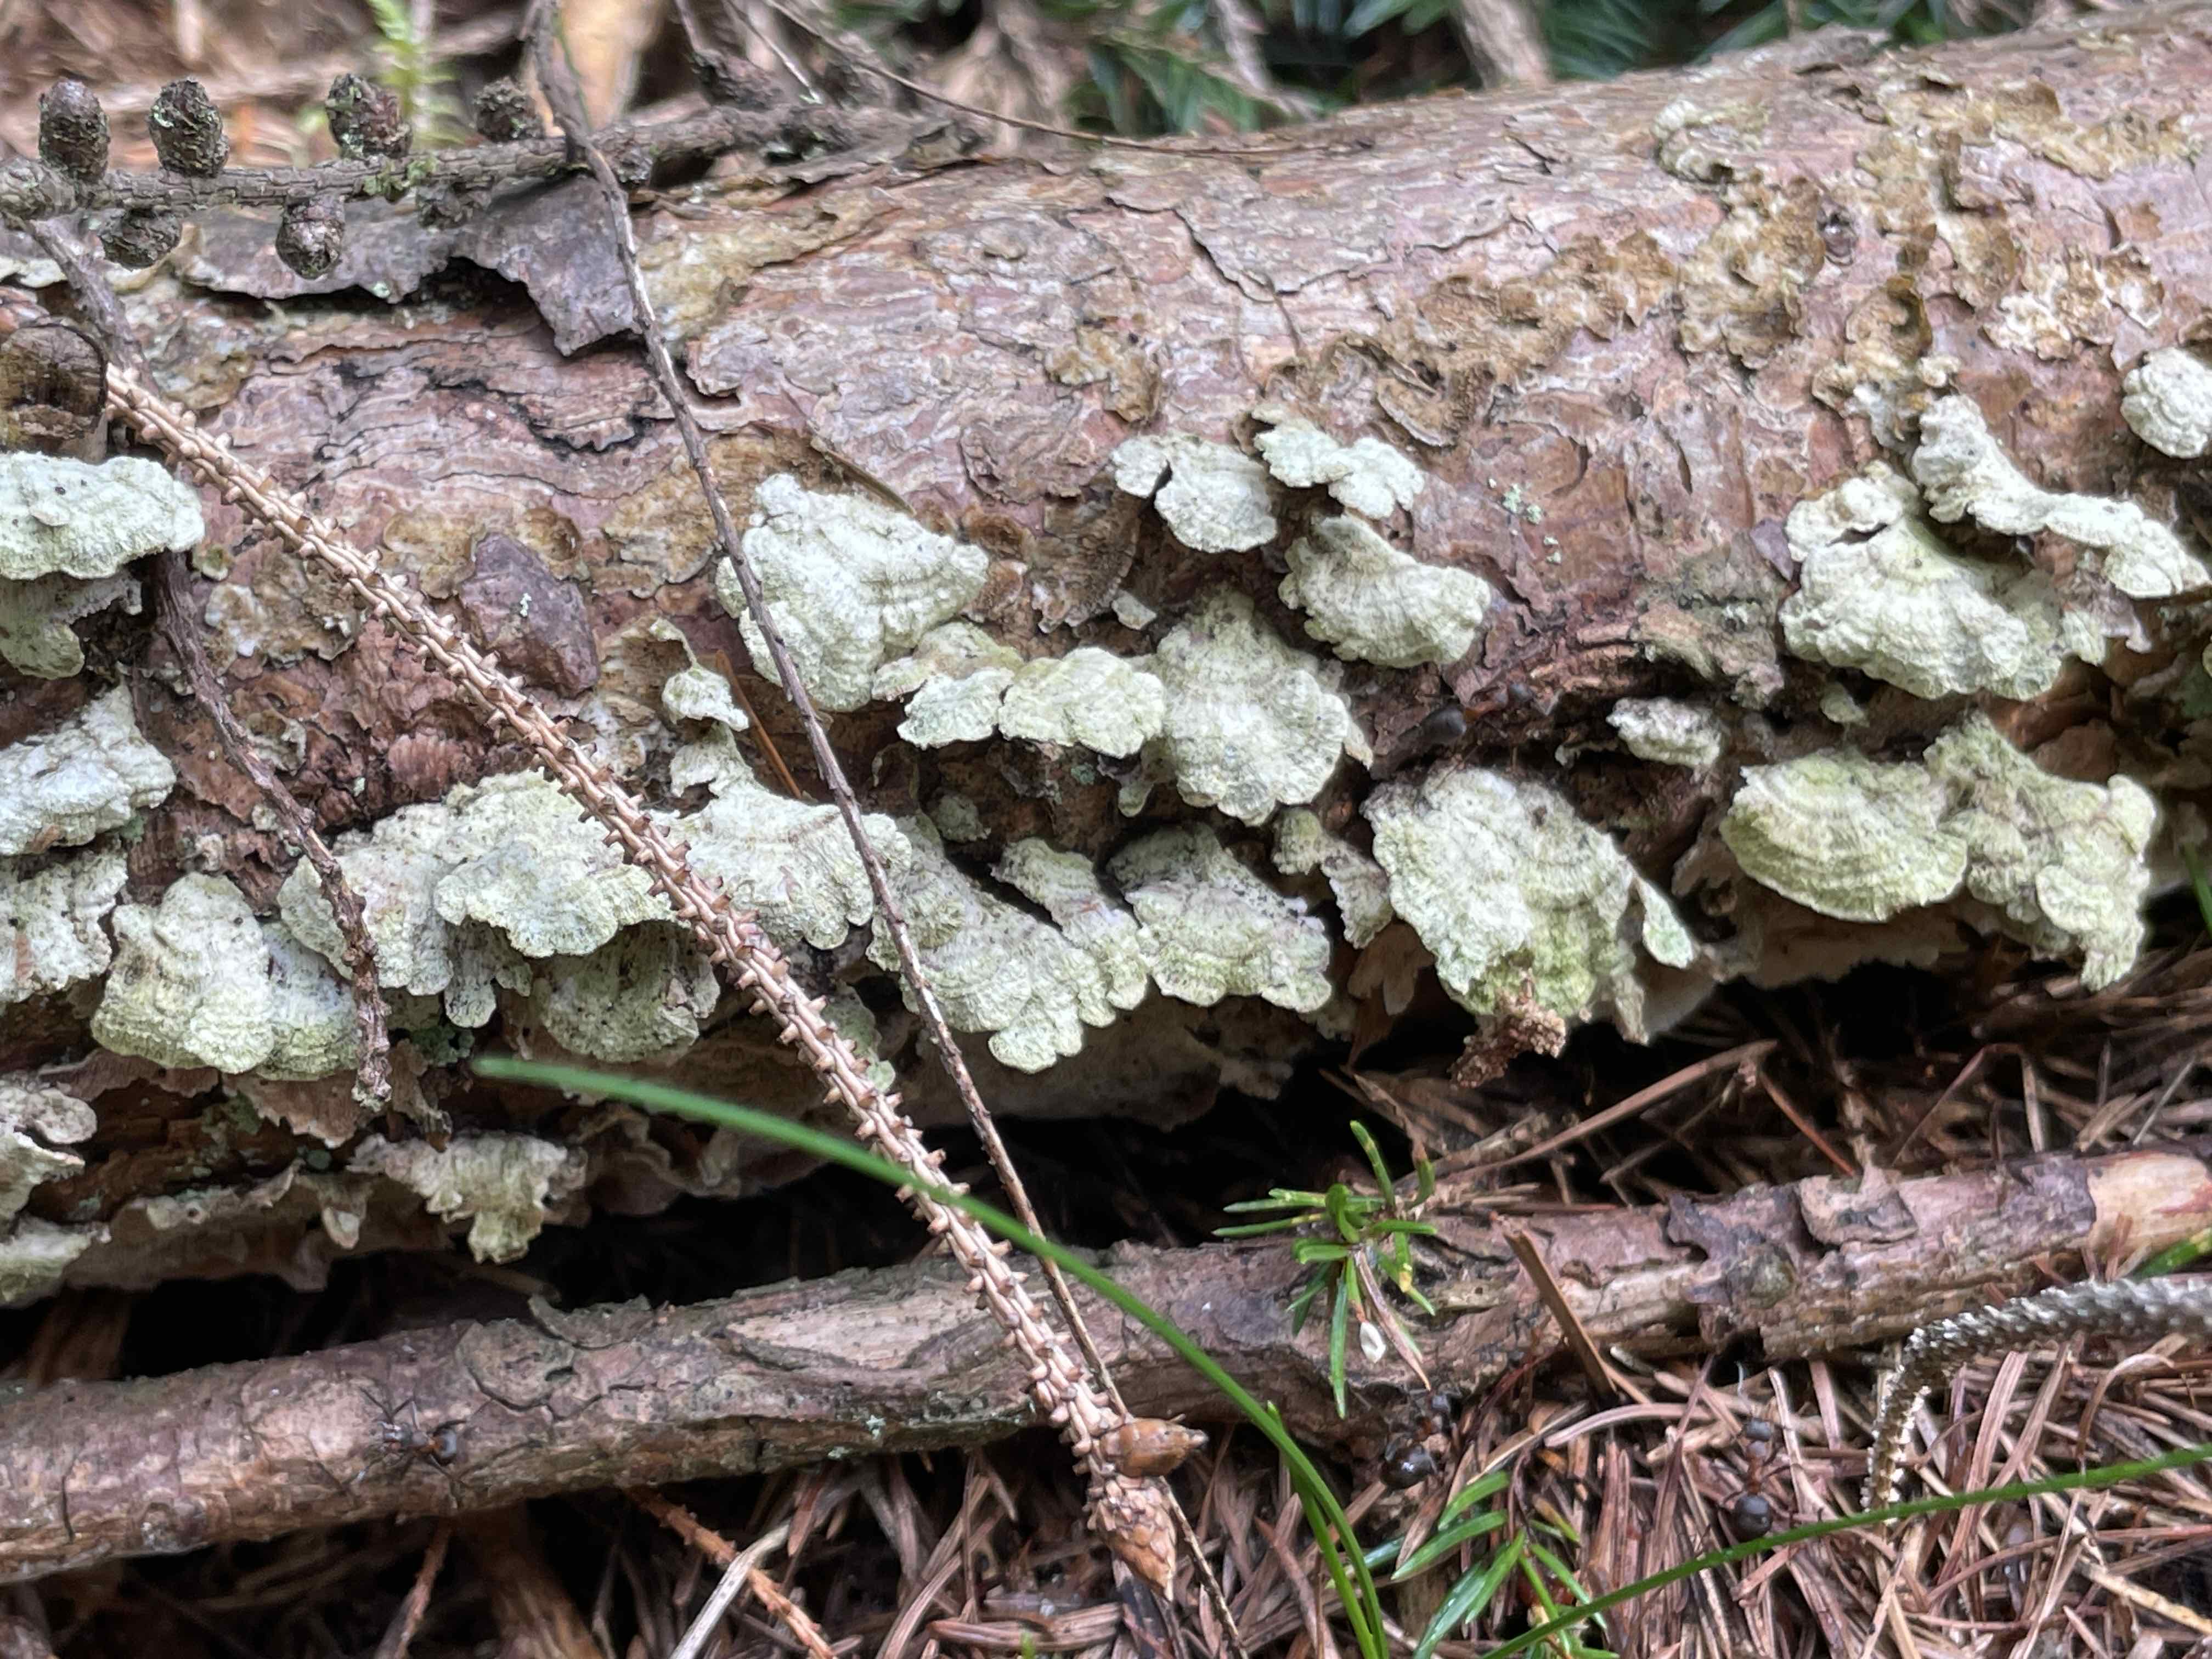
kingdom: Fungi
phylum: Basidiomycota
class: Agaricomycetes
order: Hymenochaetales
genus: Trichaptum
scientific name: Trichaptum abietinum
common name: almindelig violporesvamp
